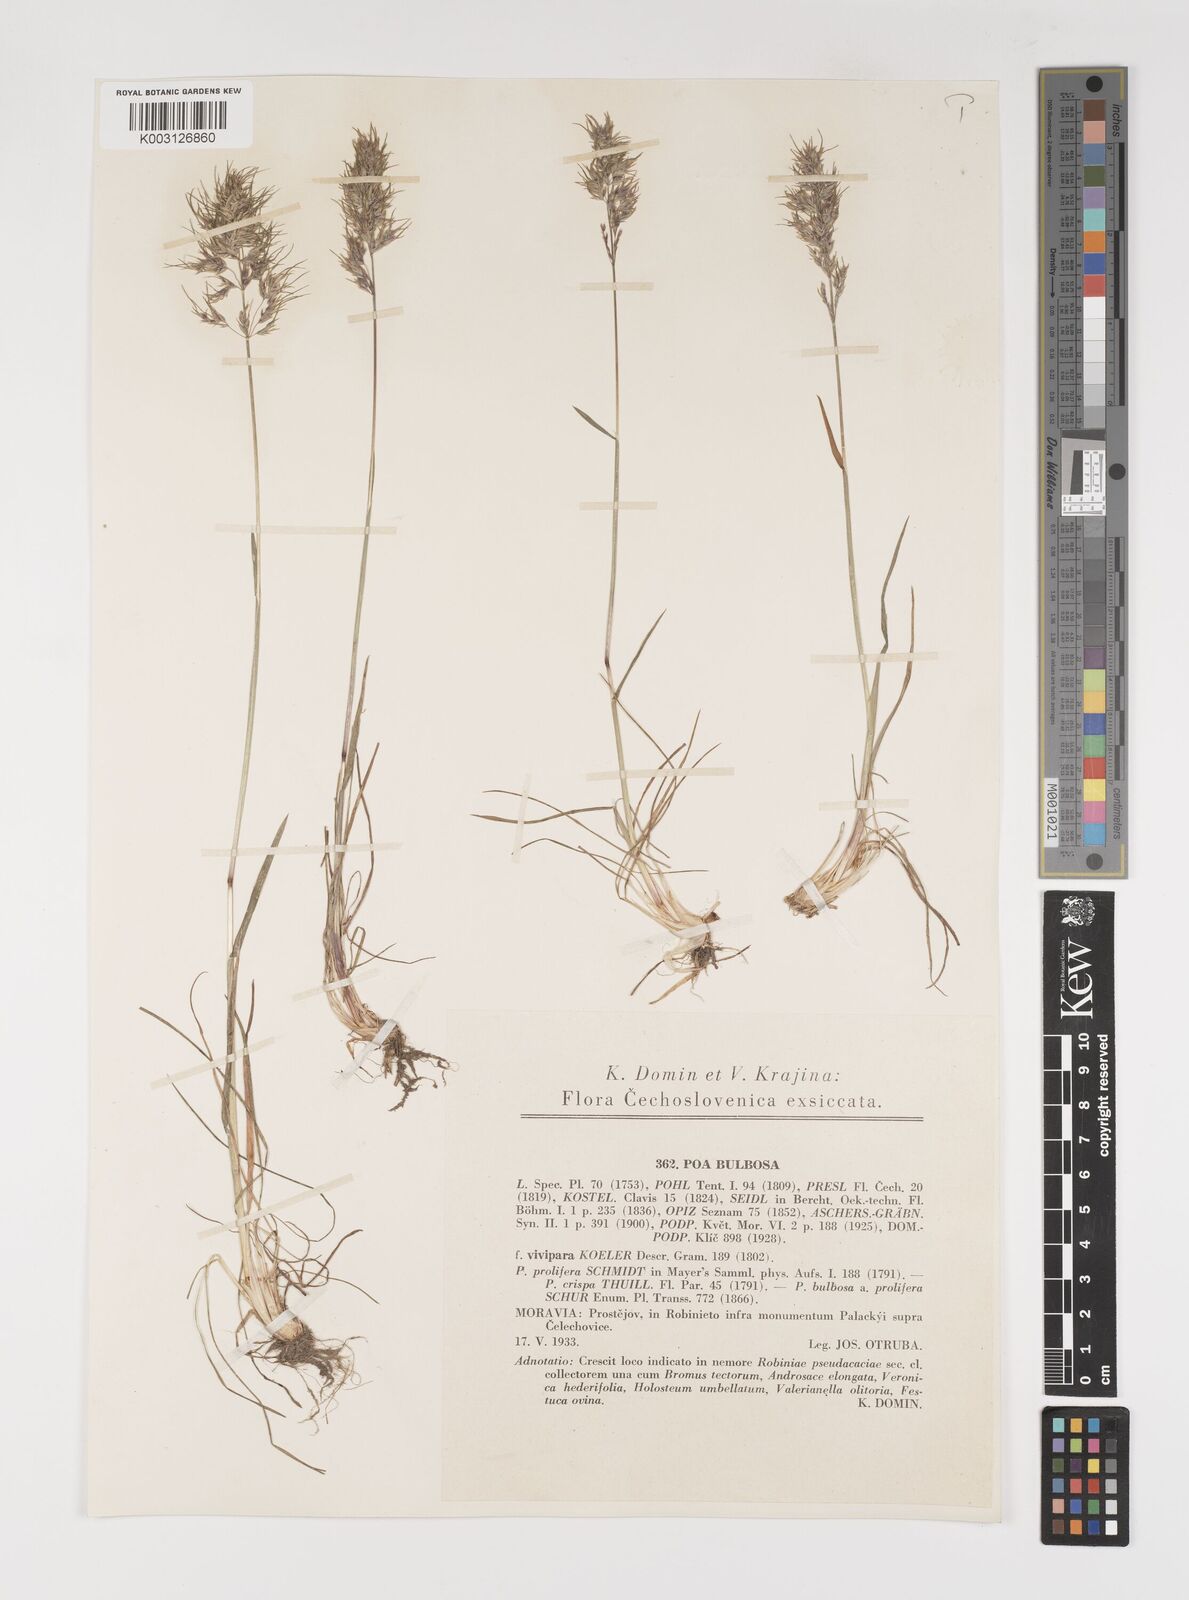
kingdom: Plantae
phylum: Tracheophyta
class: Liliopsida
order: Poales
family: Poaceae
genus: Poa
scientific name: Poa bulbosa
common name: Bulbous bluegrass
